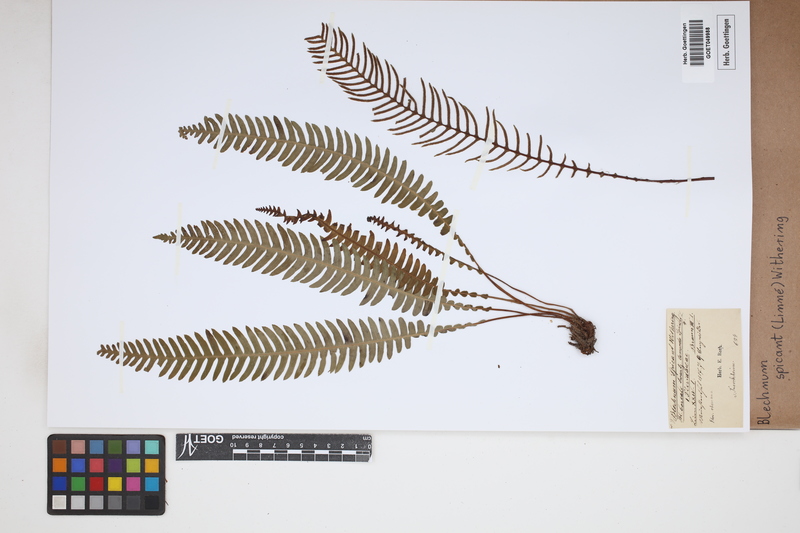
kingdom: Plantae
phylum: Tracheophyta
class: Polypodiopsida
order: Polypodiales
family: Blechnaceae
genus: Struthiopteris
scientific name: Struthiopteris spicant
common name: Deer fern
